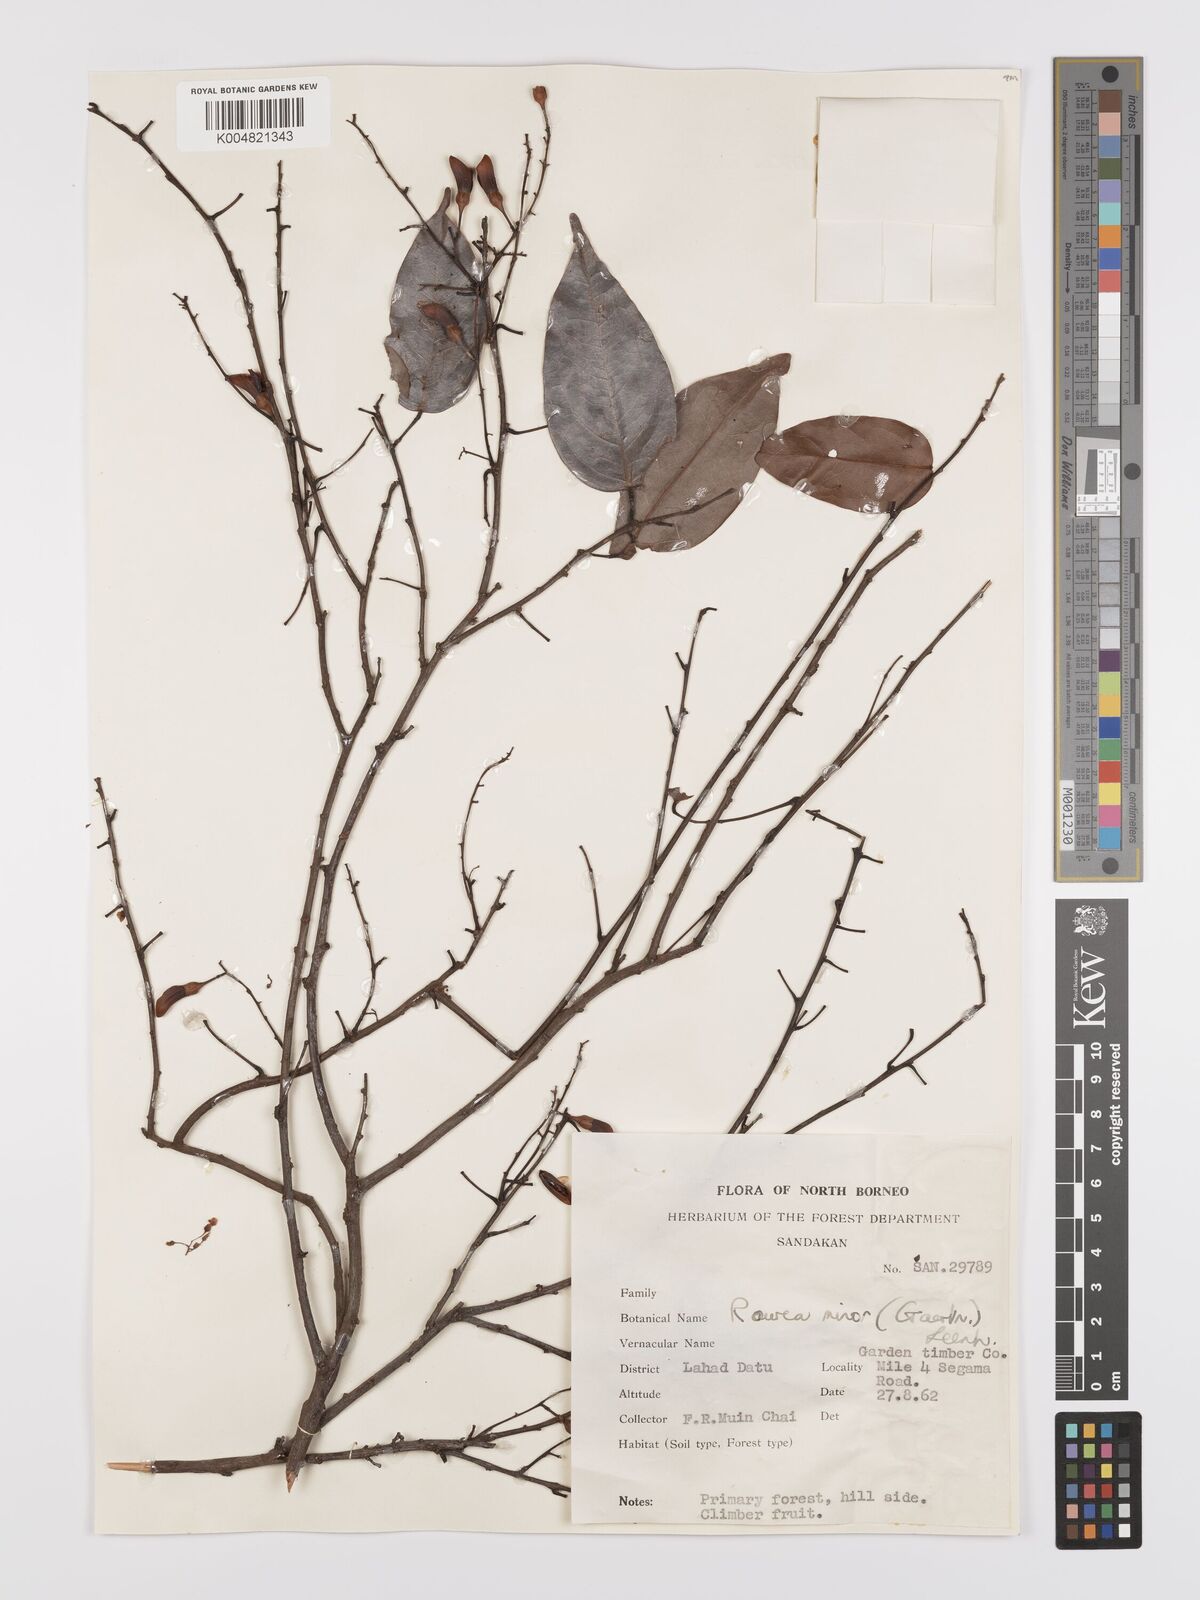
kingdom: Plantae
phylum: Tracheophyta
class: Magnoliopsida
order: Oxalidales
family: Connaraceae
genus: Rourea
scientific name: Rourea minor
